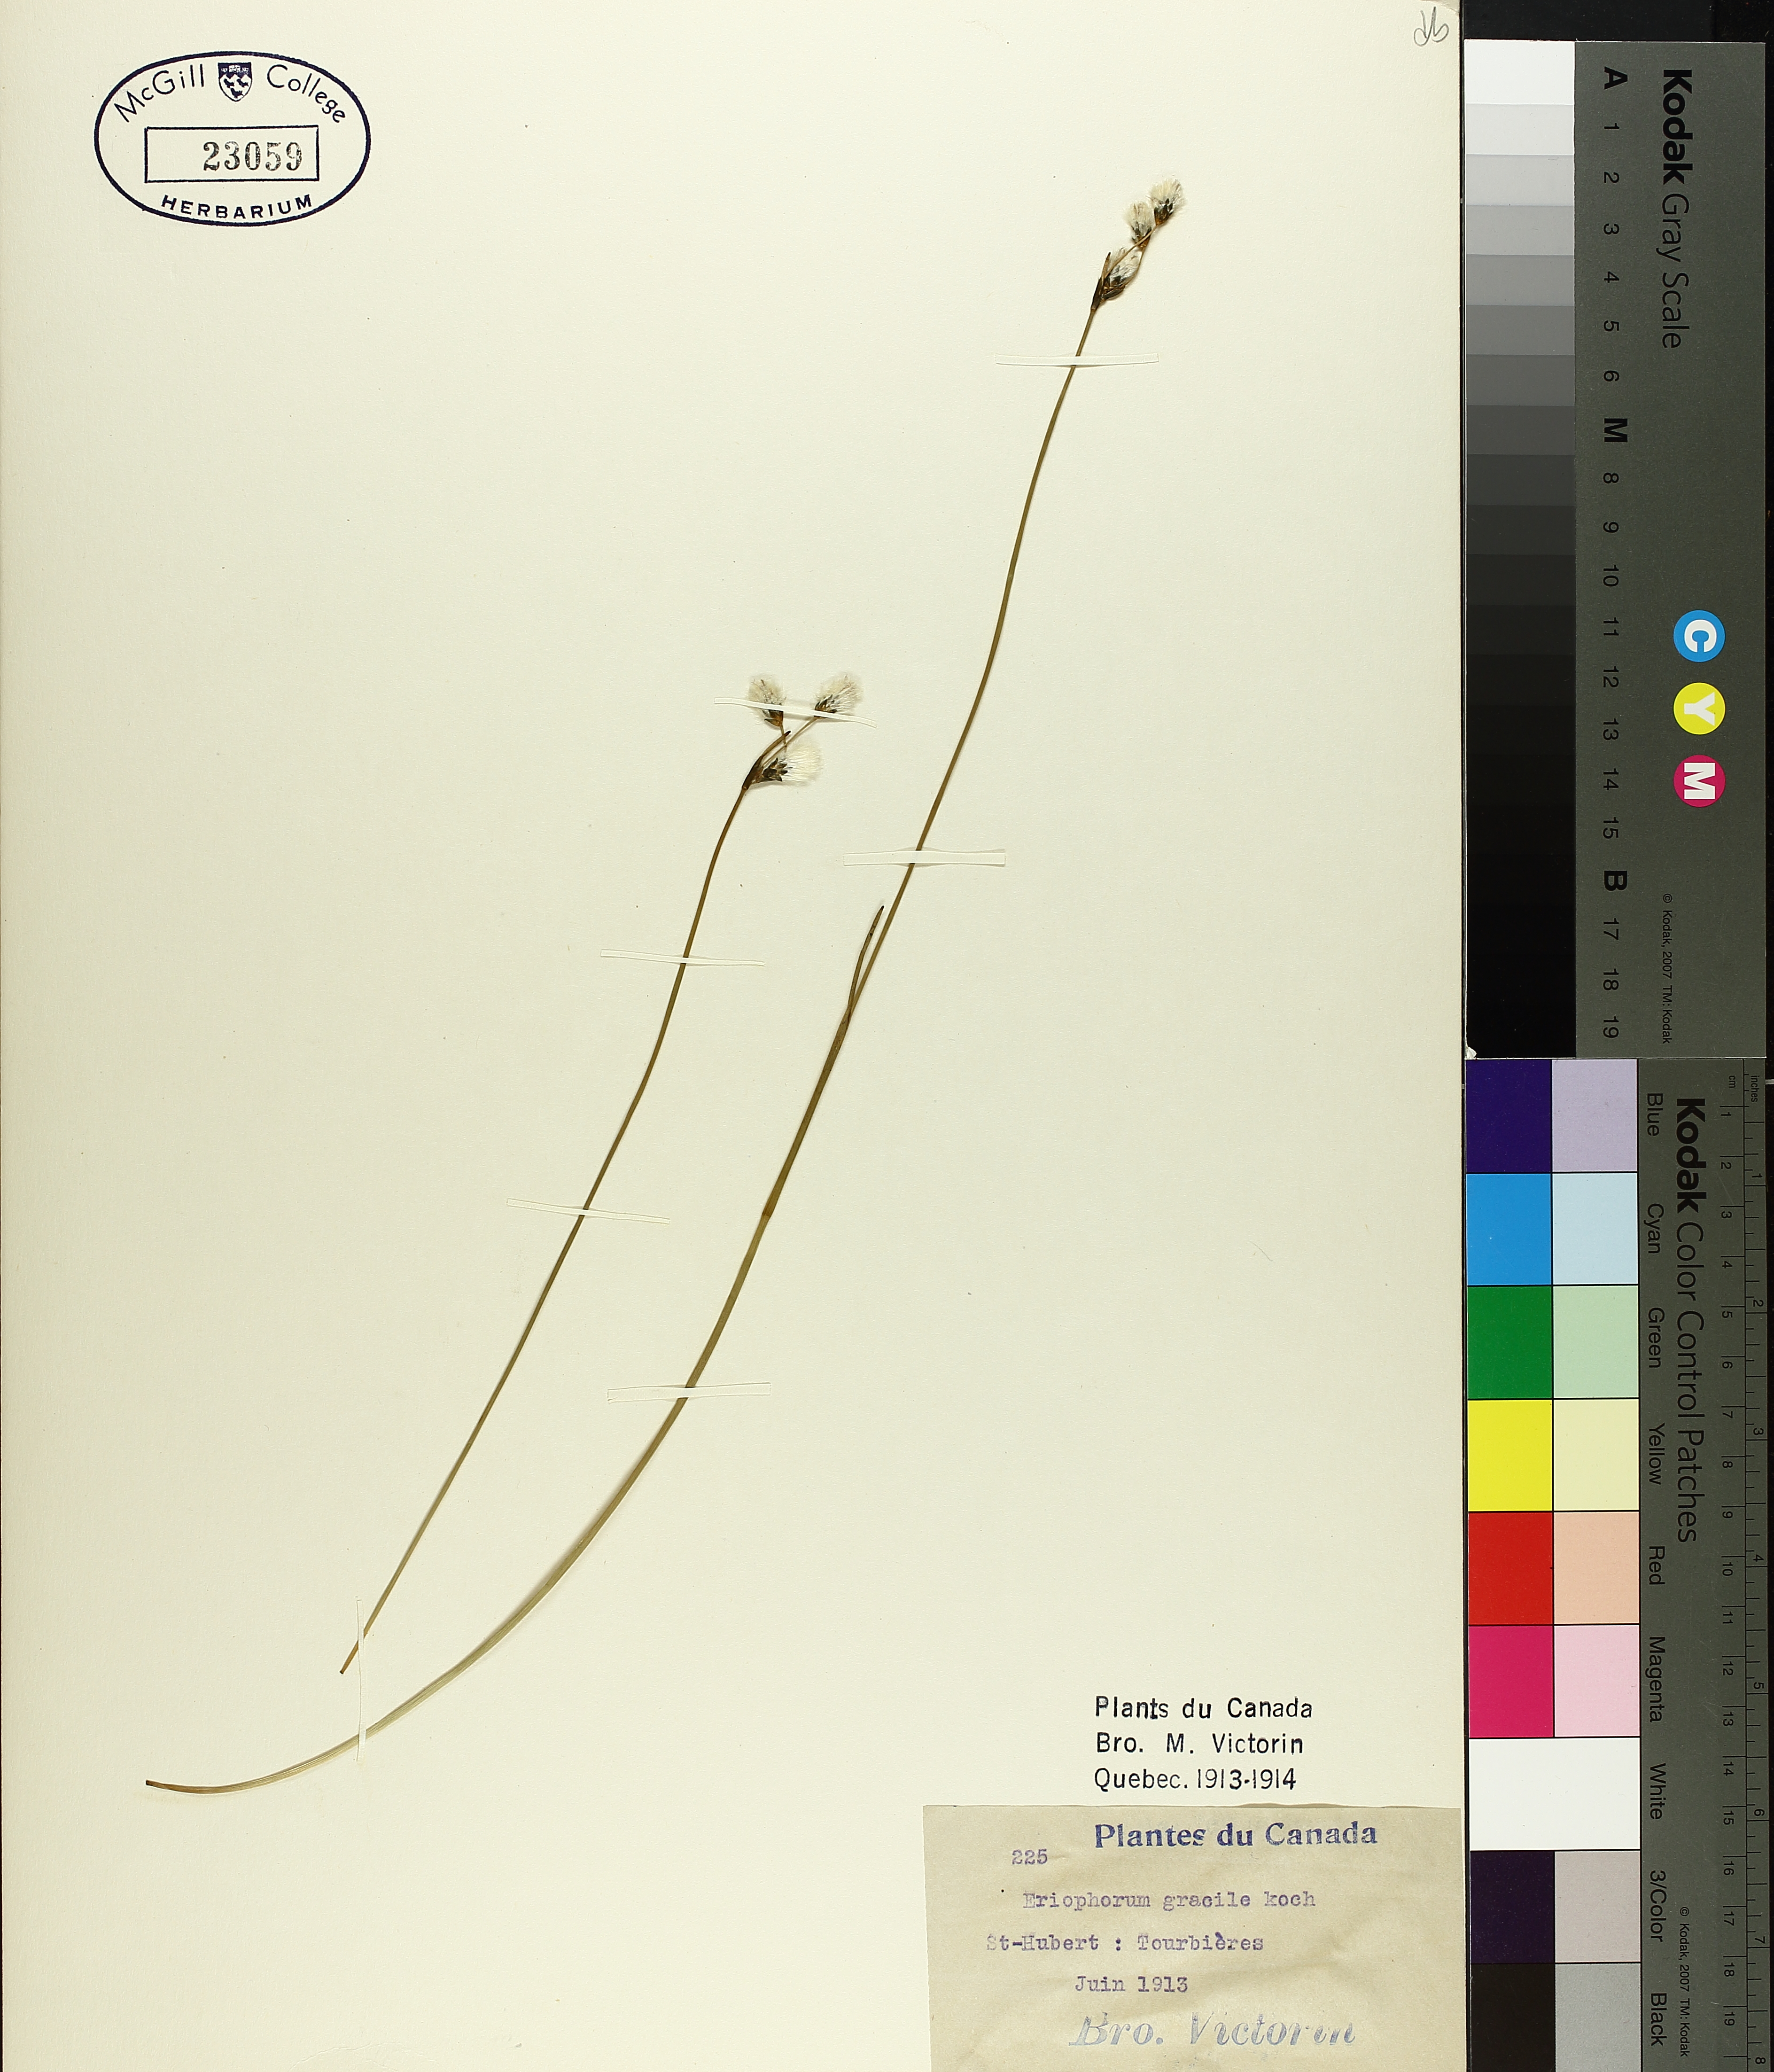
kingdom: Plantae
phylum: Tracheophyta
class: Liliopsida
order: Poales
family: Cyperaceae
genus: Eriophorum
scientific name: Eriophorum gracile
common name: Slender cottongrass
